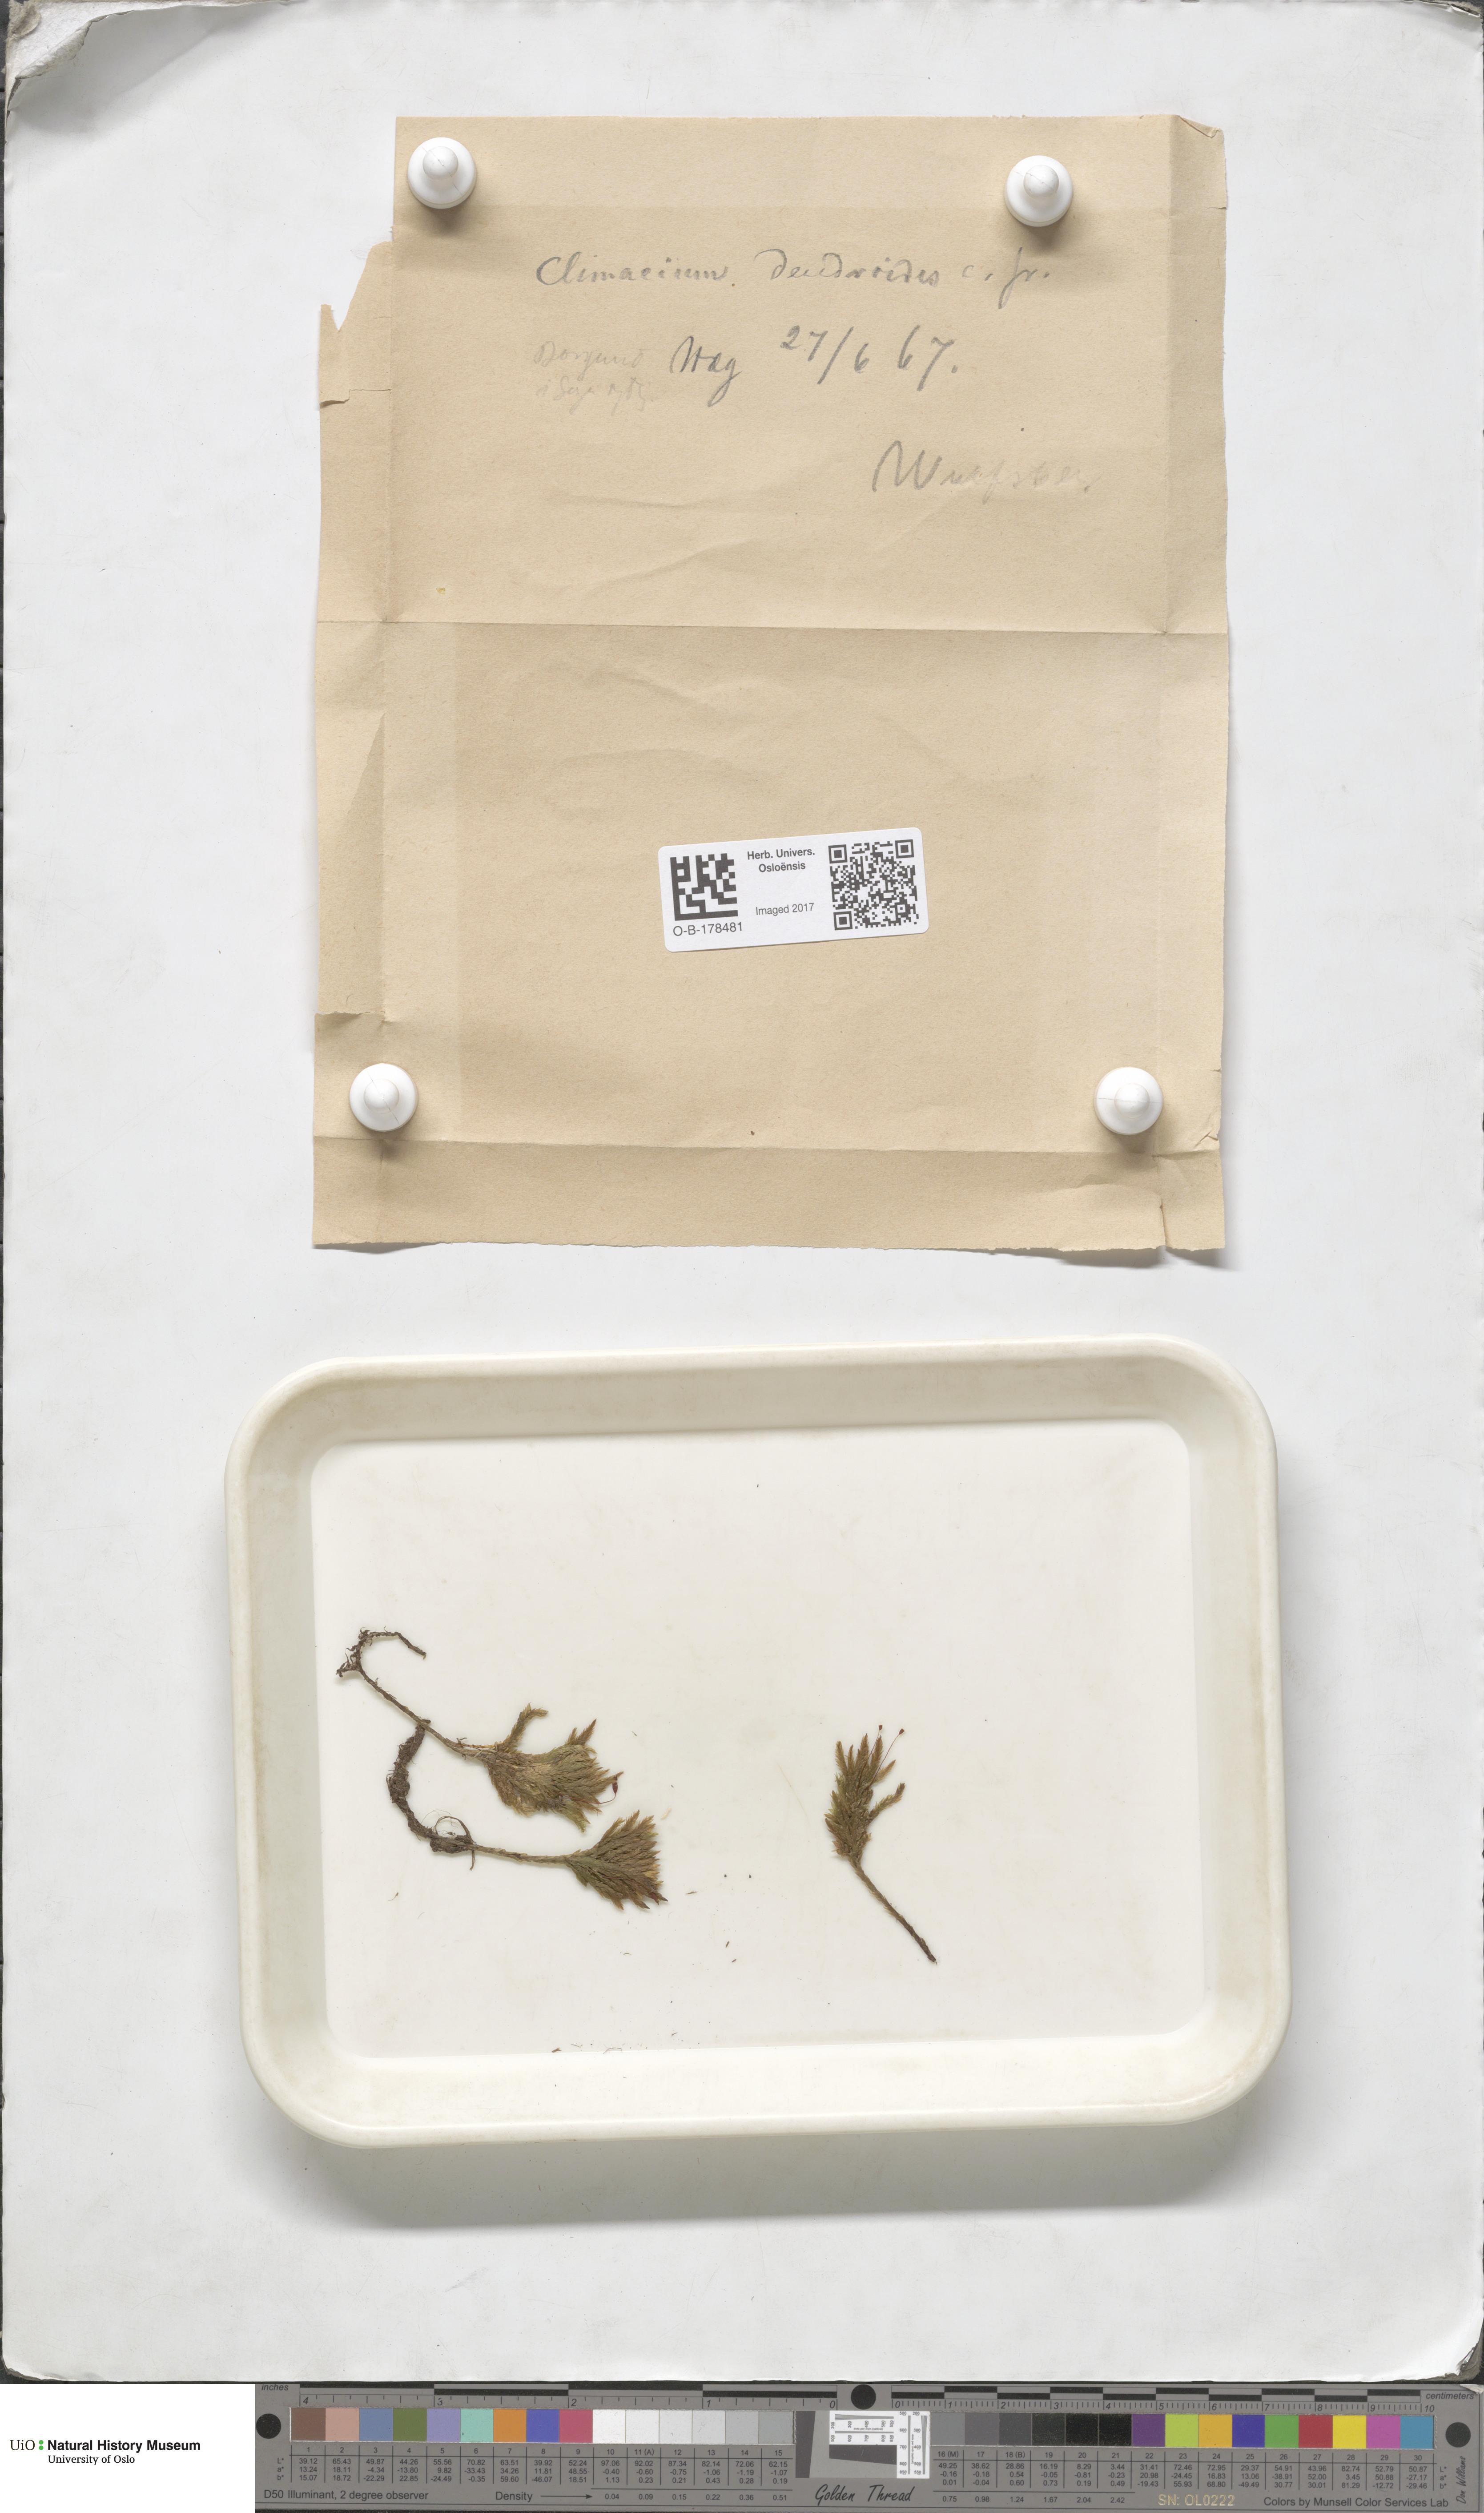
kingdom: Plantae
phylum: Bryophyta
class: Bryopsida
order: Hypnales
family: Climaciaceae
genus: Climacium
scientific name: Climacium dendroides
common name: Northern tree moss
